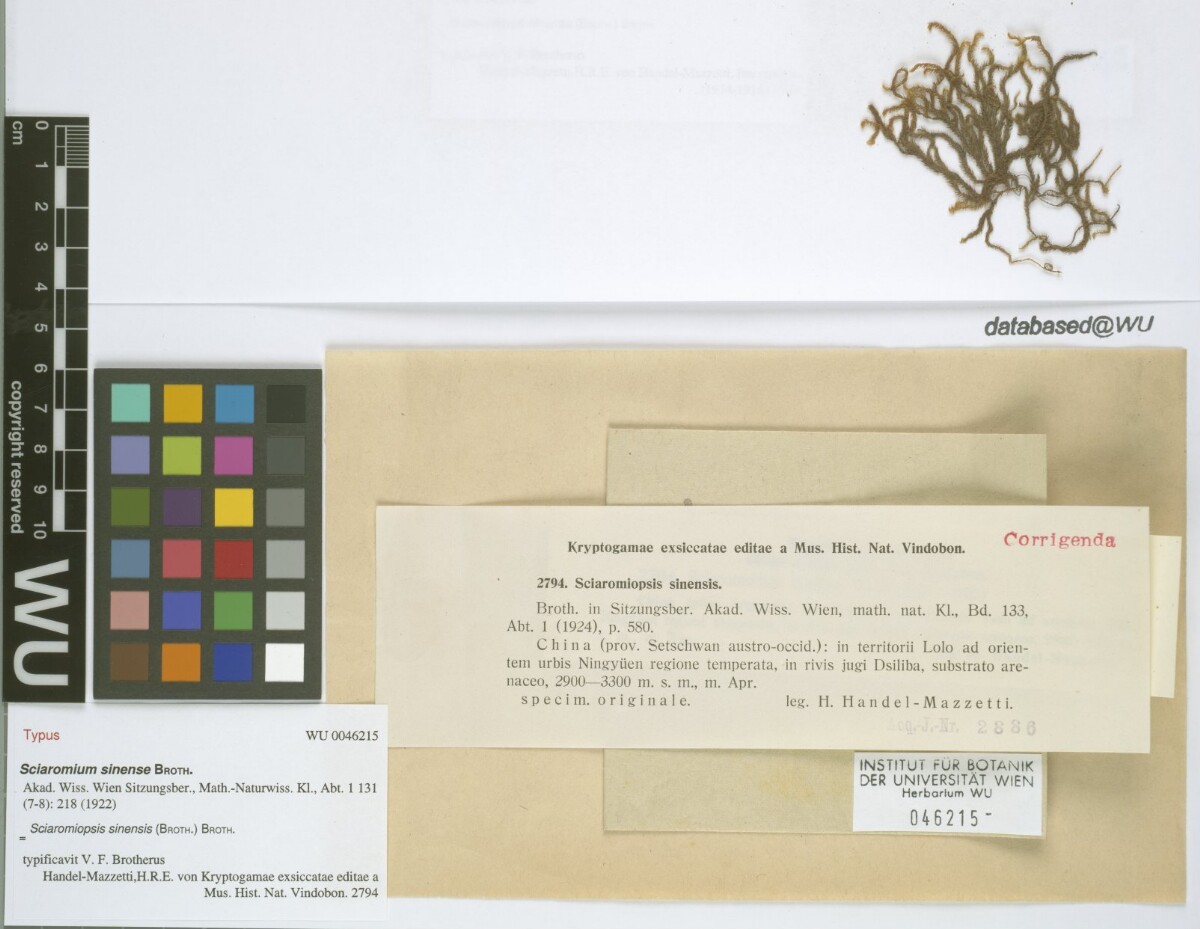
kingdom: Plantae
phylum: Bryophyta
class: Bryopsida
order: Hypnales
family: Brachytheciaceae
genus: Brachythecium
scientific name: Brachythecium sinense
